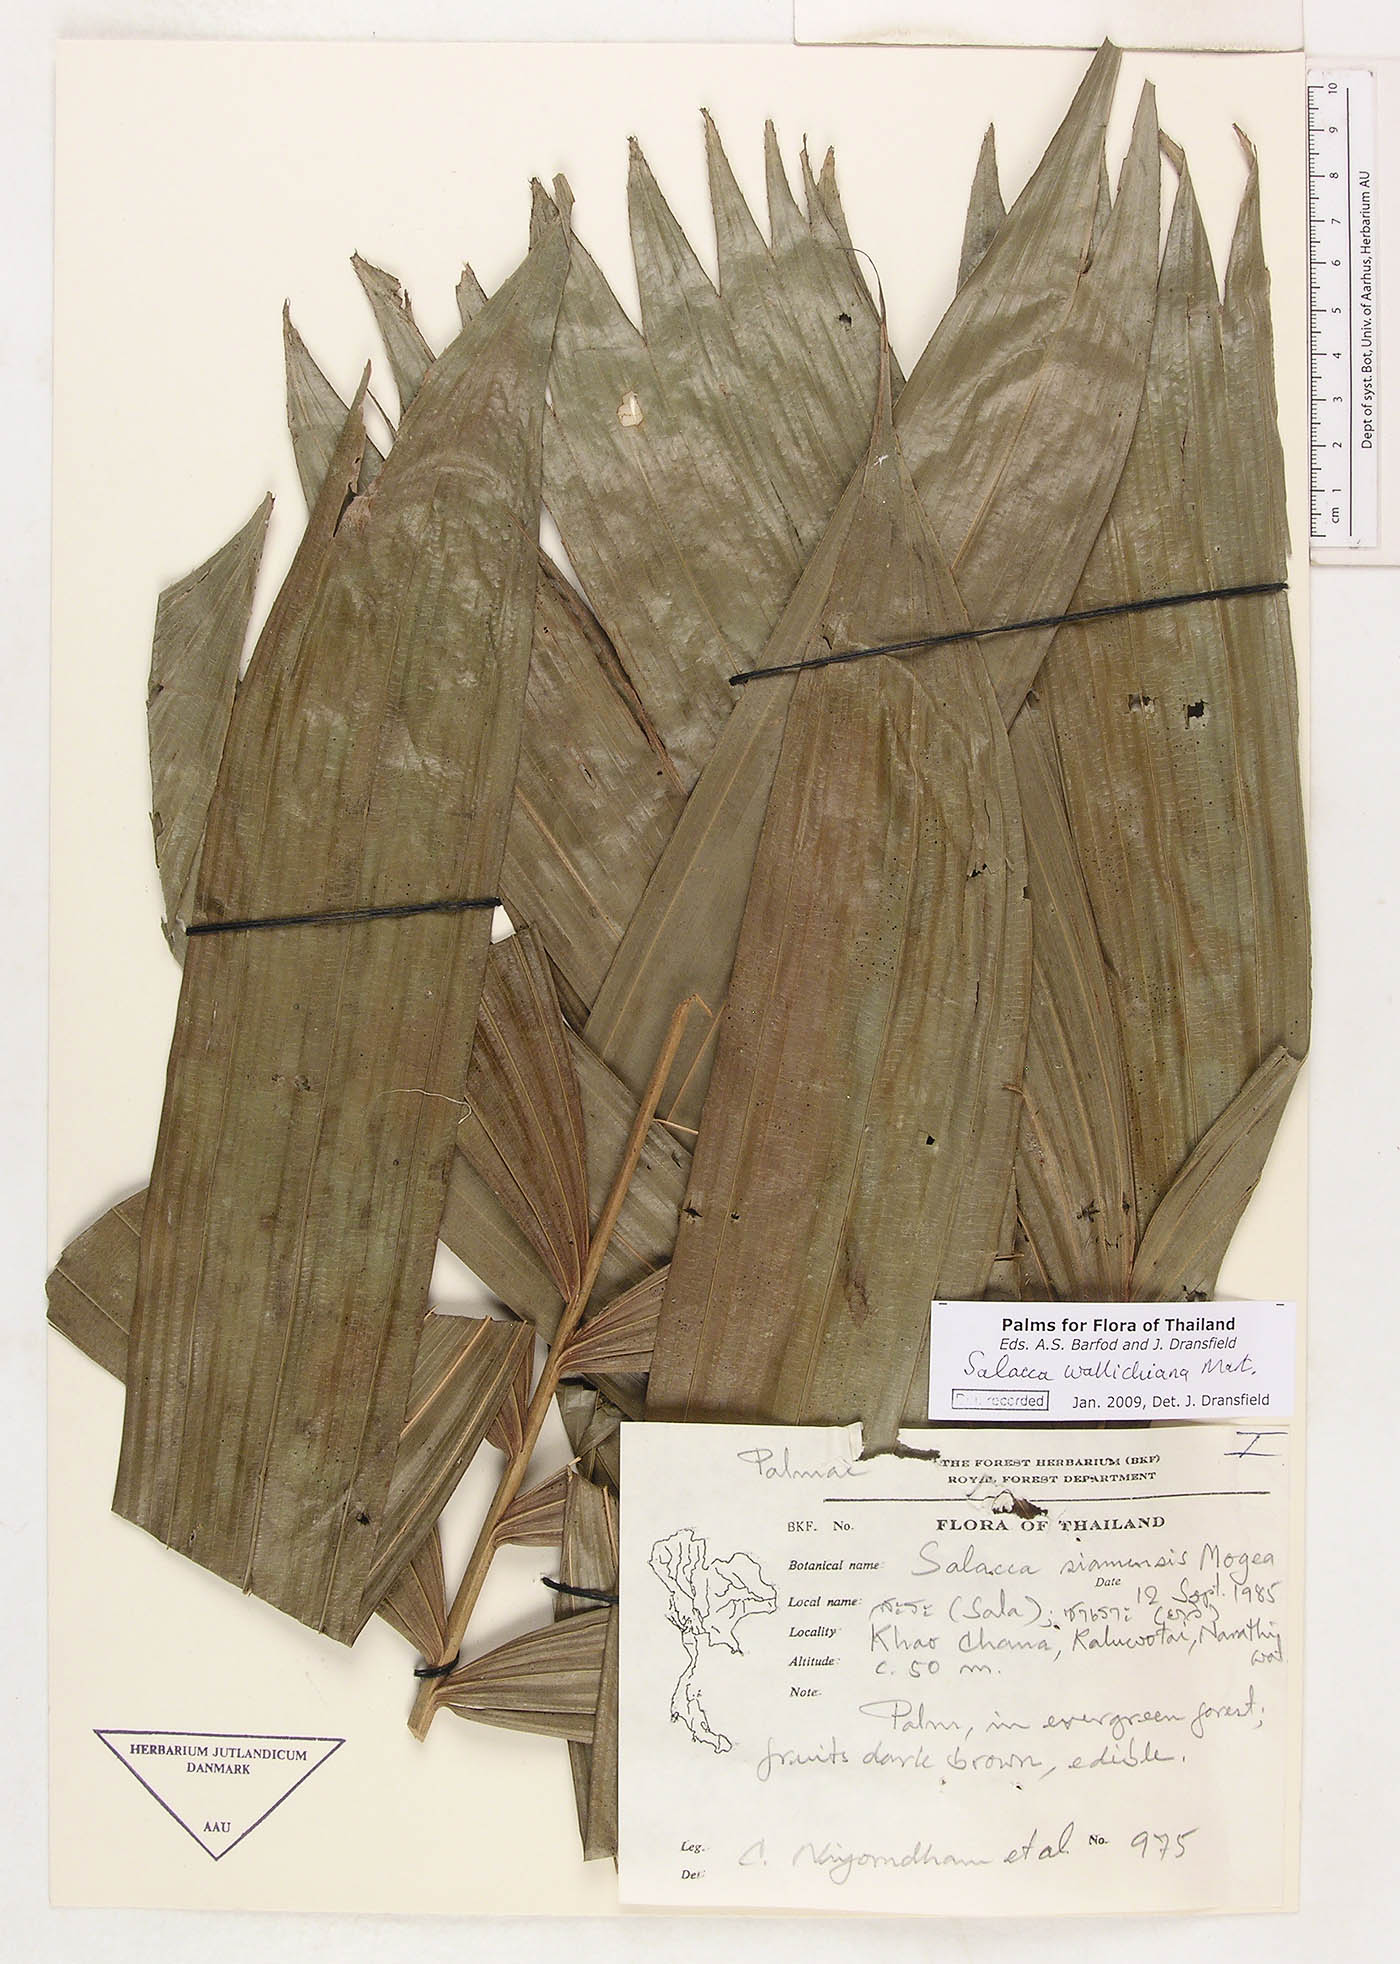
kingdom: Plantae
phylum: Tracheophyta
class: Liliopsida
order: Arecales
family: Arecaceae
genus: Salacca
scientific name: Salacca wallichiana
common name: Rakum palm
